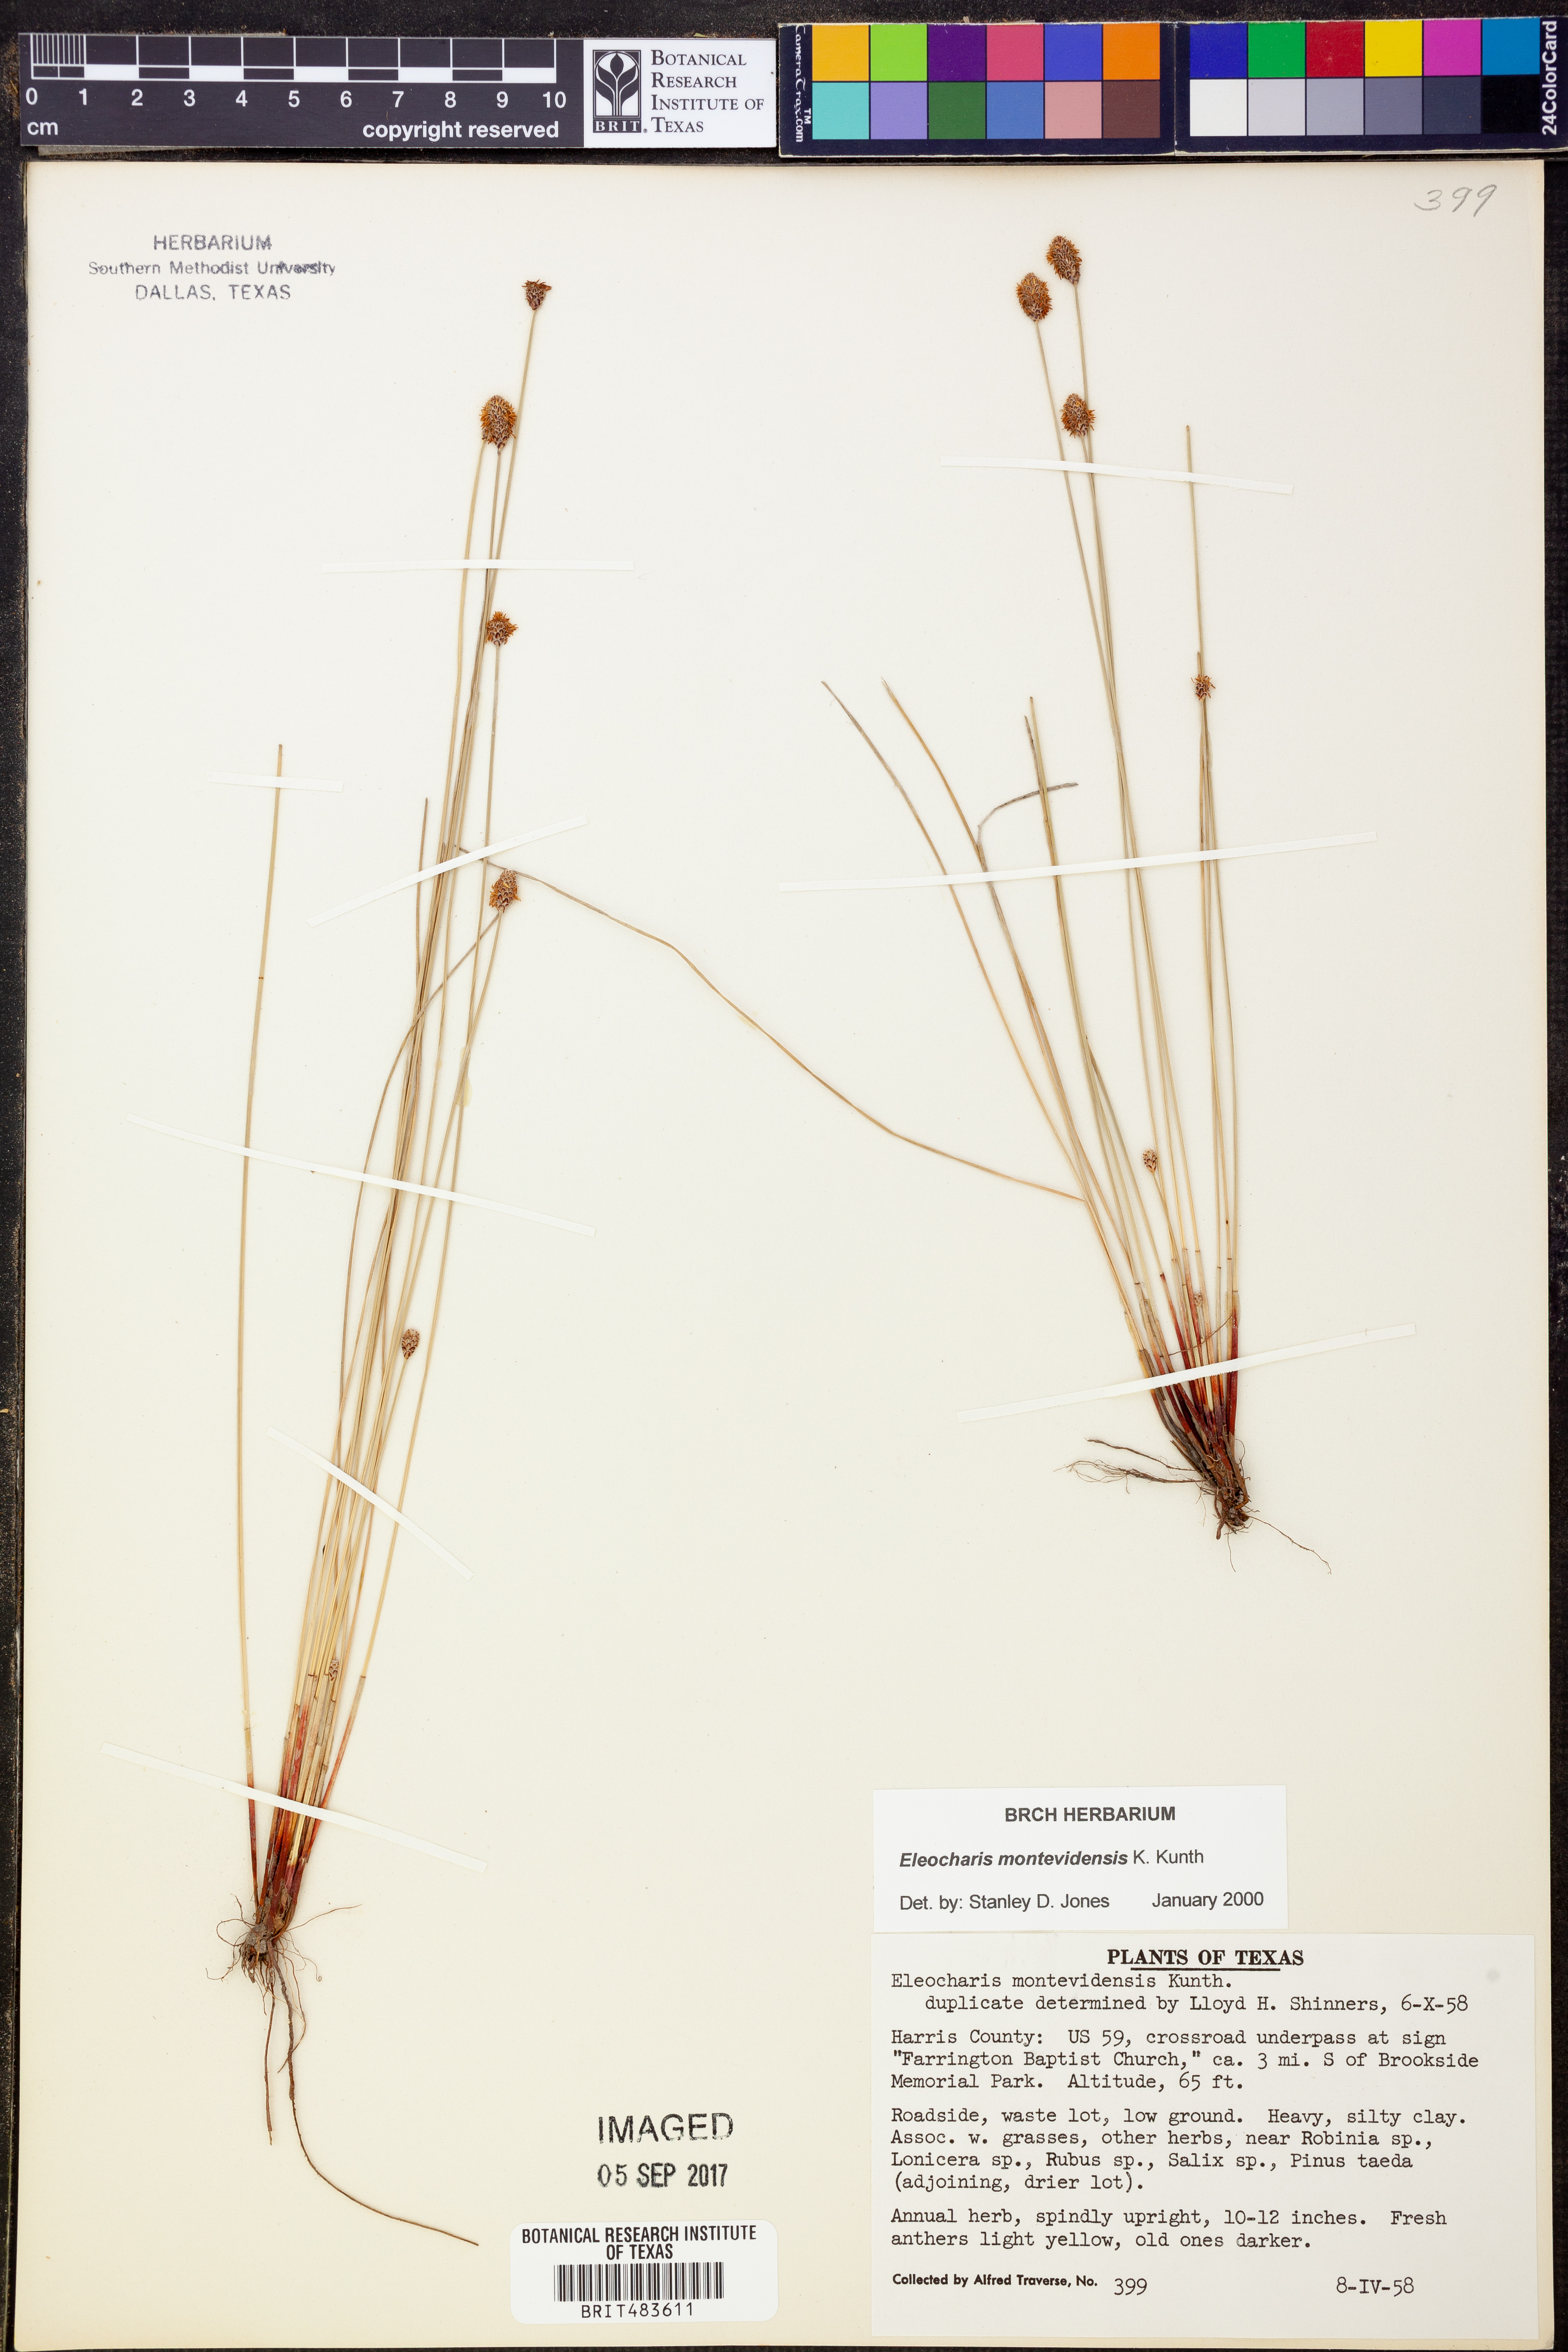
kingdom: Plantae
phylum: Tracheophyta
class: Liliopsida
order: Poales
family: Cyperaceae
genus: Eleocharis
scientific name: Eleocharis montevidensis
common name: Sand spike-rush
